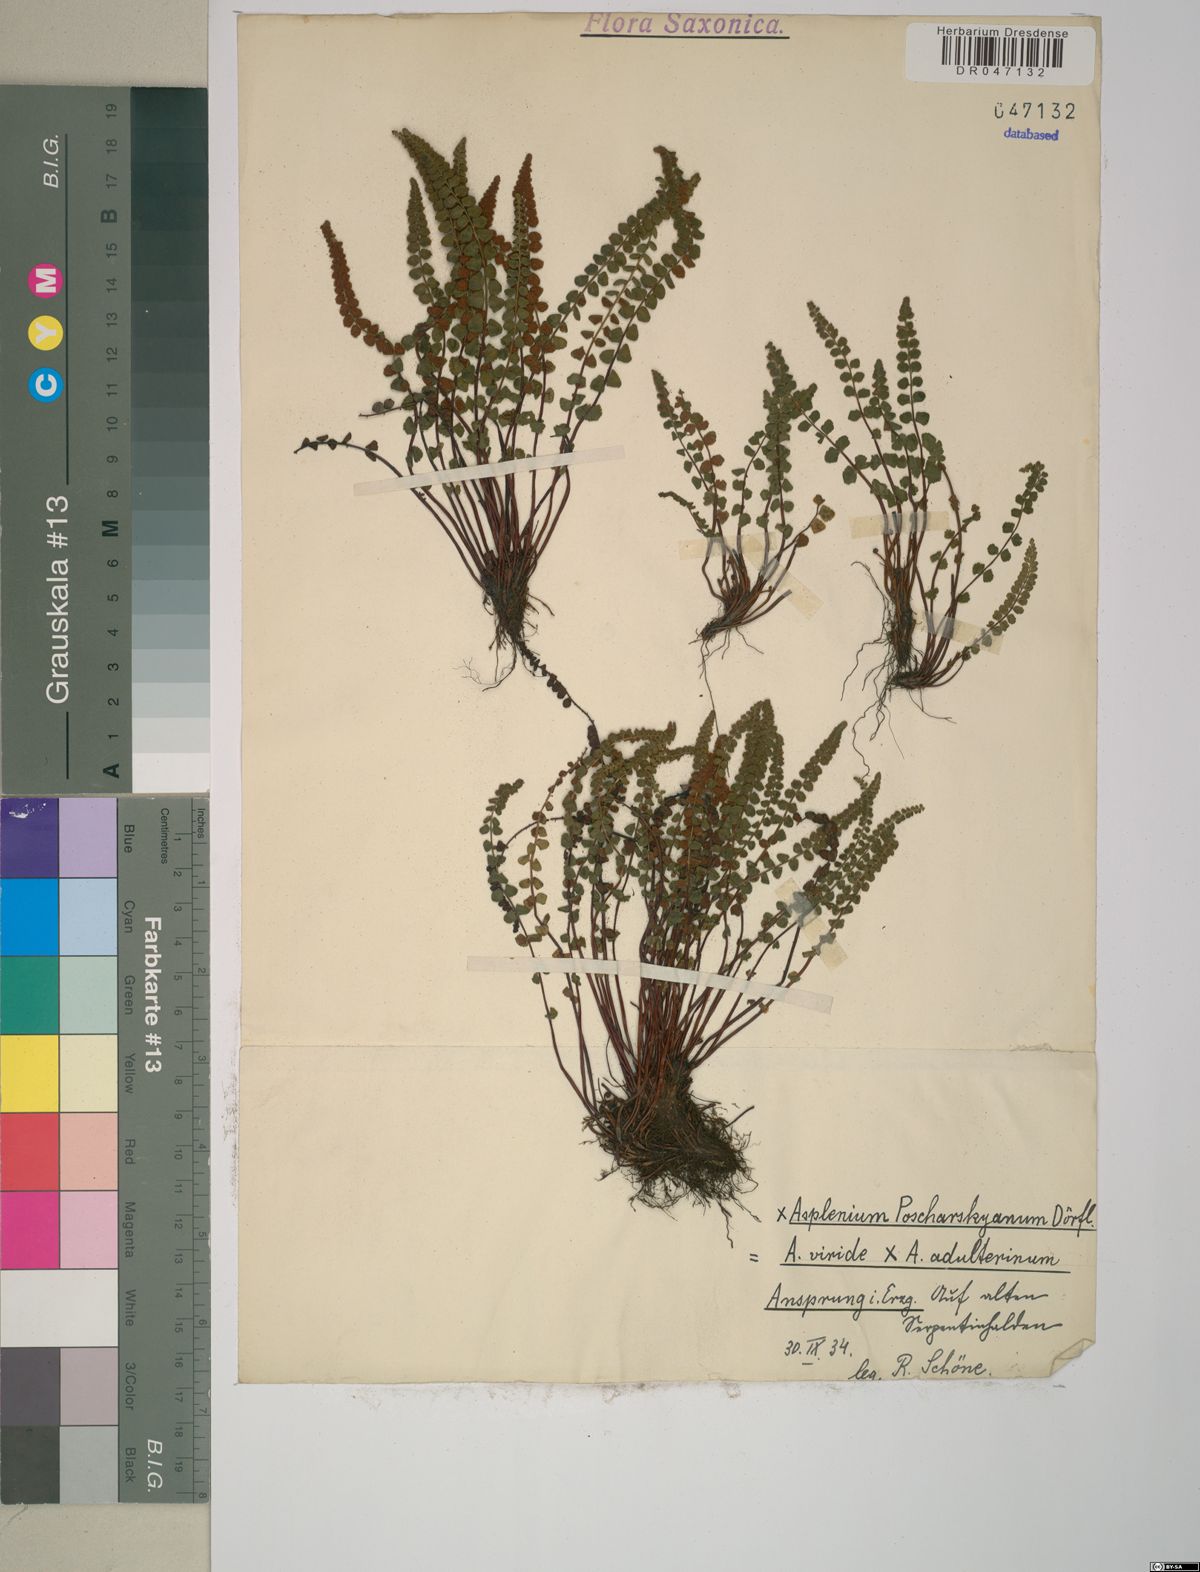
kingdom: Plantae
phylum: Tracheophyta
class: Polypodiopsida
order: Polypodiales
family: Aspleniaceae
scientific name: Aspleniaceae
